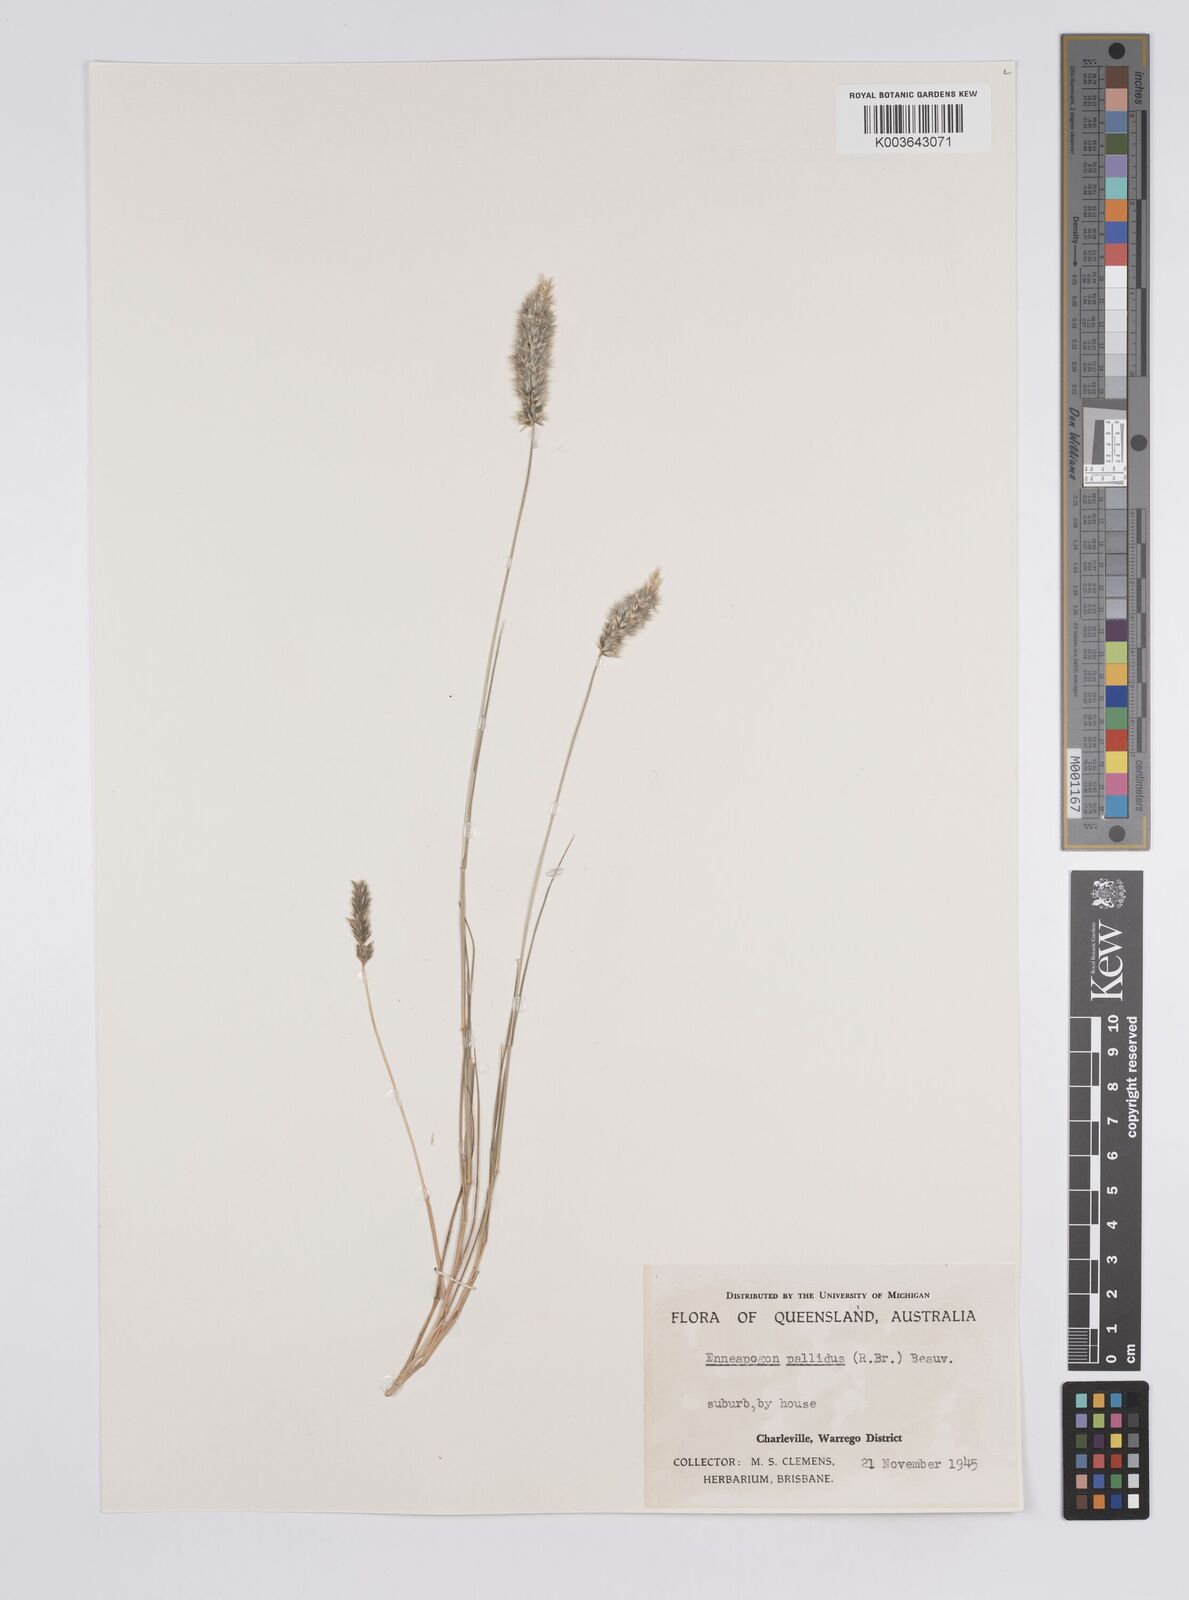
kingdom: Plantae
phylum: Tracheophyta
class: Liliopsida
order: Poales
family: Poaceae
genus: Enneapogon
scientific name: Enneapogon pallidus
